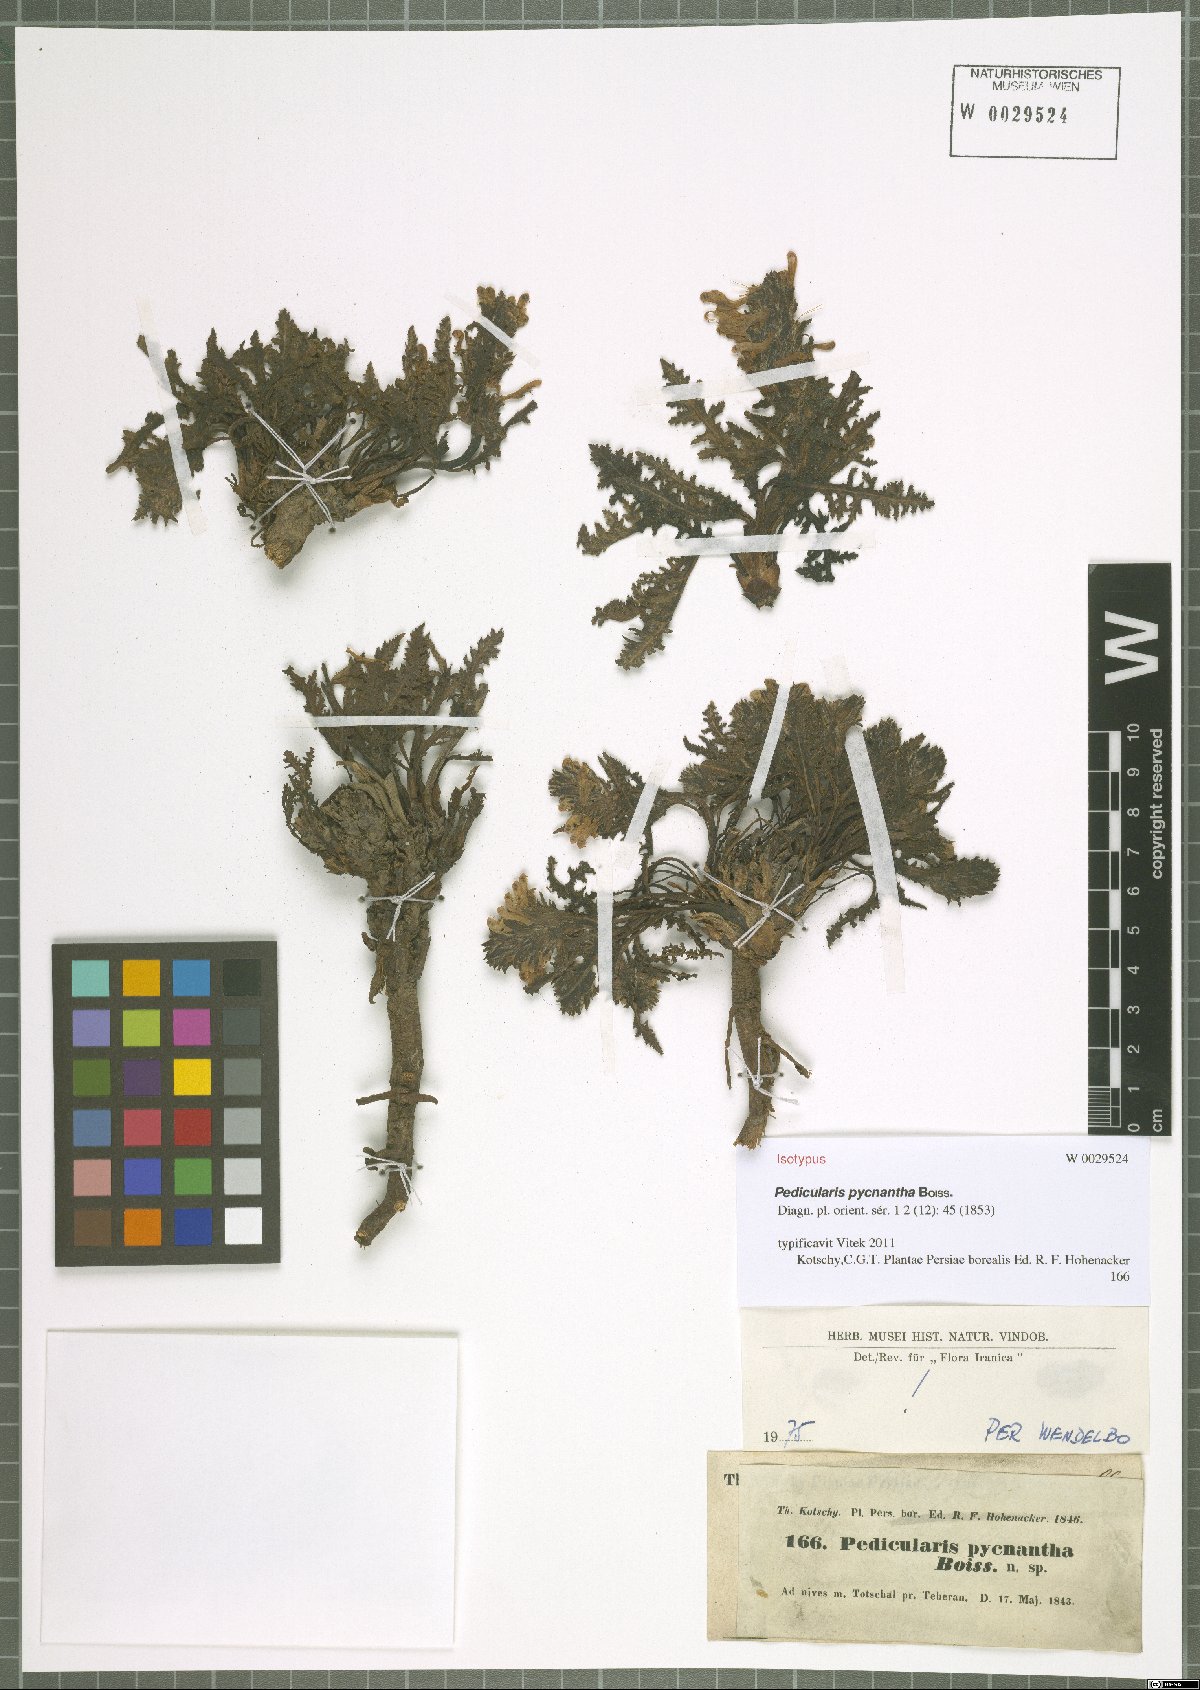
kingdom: Plantae
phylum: Tracheophyta
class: Magnoliopsida
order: Lamiales
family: Orobanchaceae
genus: Pedicularis
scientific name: Pedicularis pycnantha
